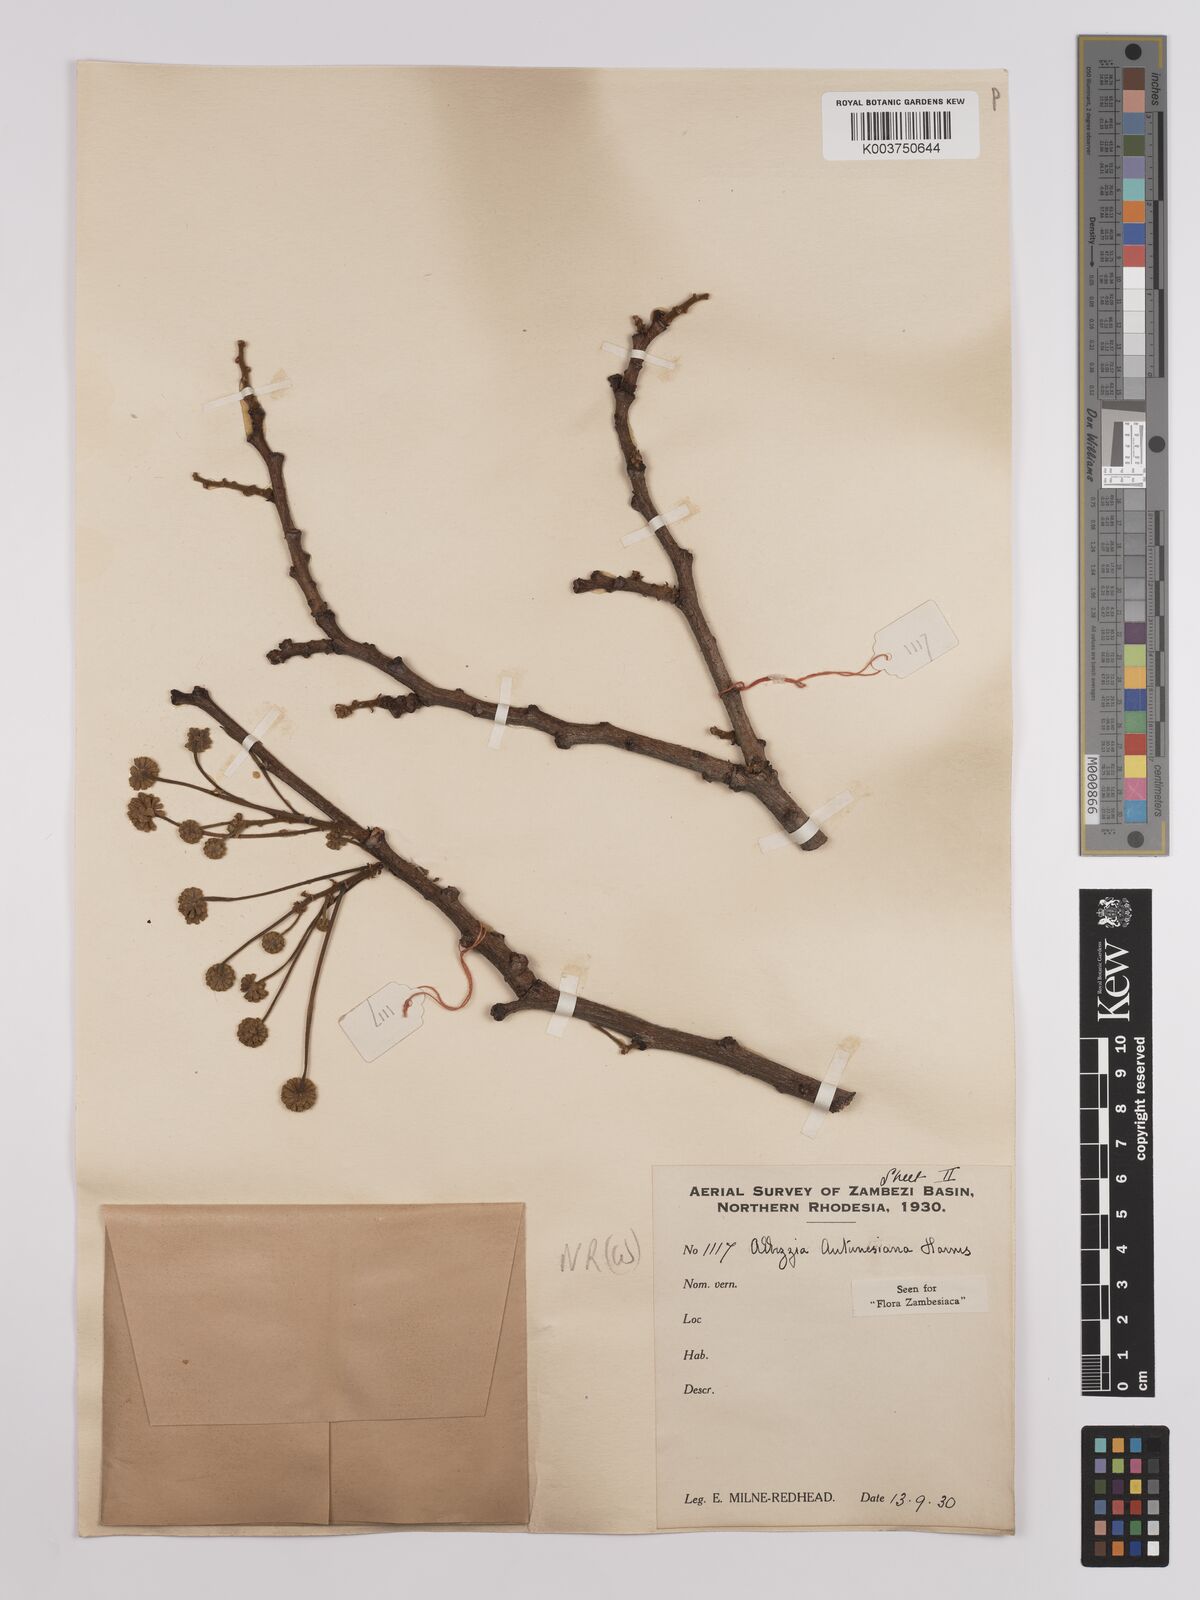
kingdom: Plantae
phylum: Tracheophyta
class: Magnoliopsida
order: Fabales
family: Fabaceae
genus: Albizia
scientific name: Albizia antunesiana
